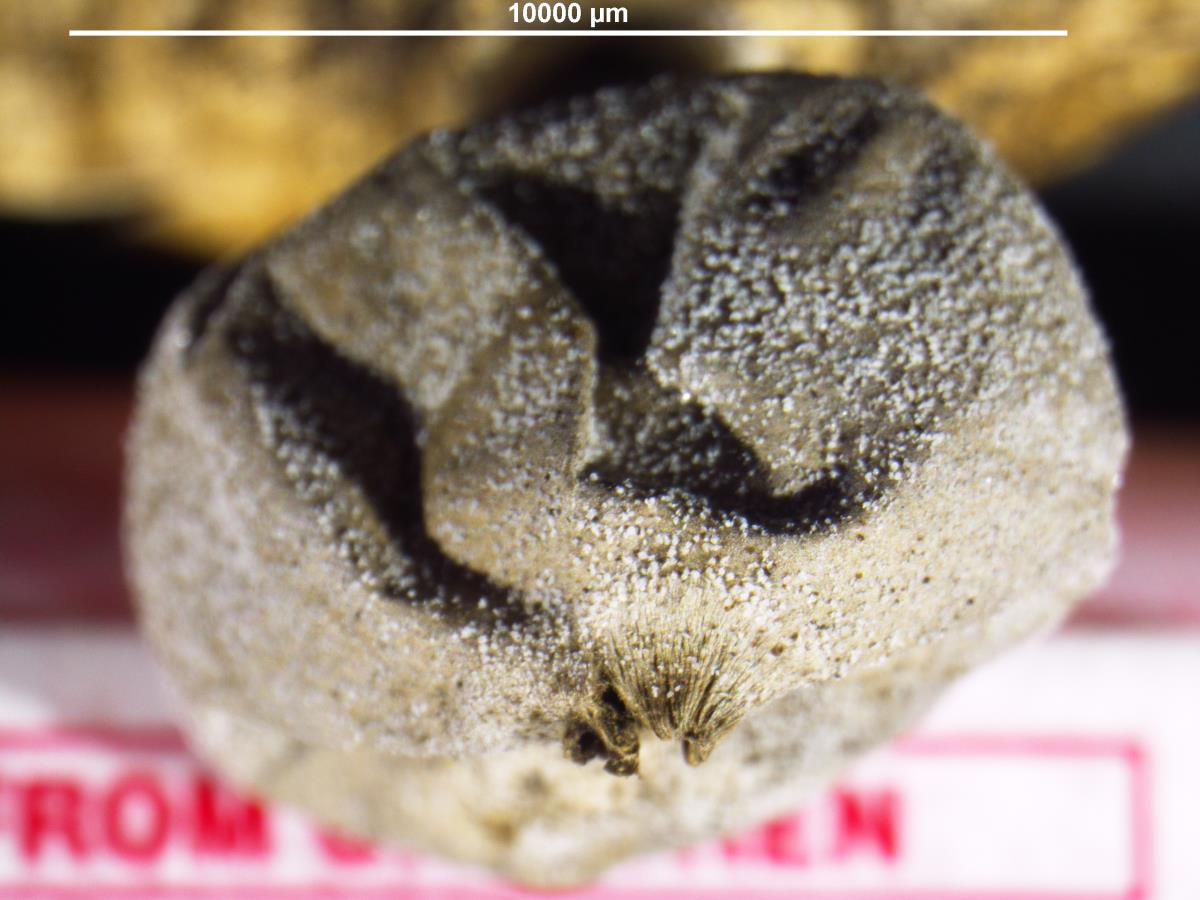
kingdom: Fungi
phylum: Basidiomycota
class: Agaricomycetes
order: Geastrales
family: Geastraceae
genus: Geastrum
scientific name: Geastrum
